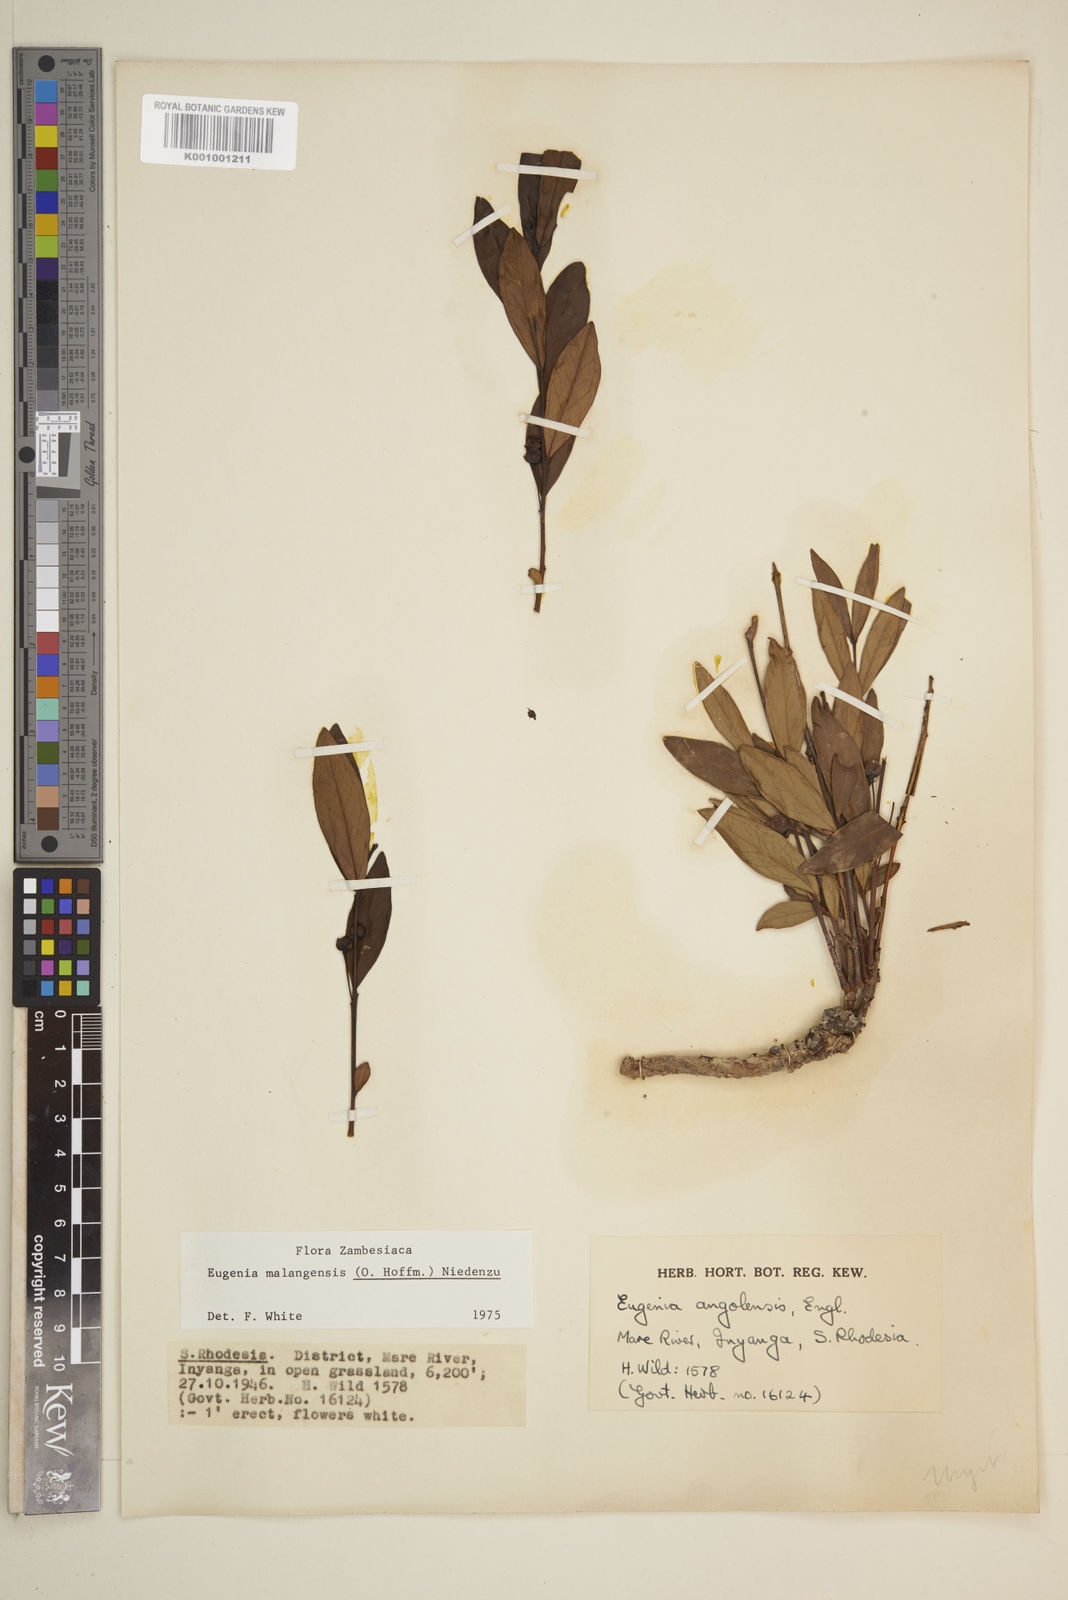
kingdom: Plantae
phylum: Tracheophyta
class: Magnoliopsida
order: Myrtales
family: Myrtaceae
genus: Eugenia
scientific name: Eugenia malangensis
